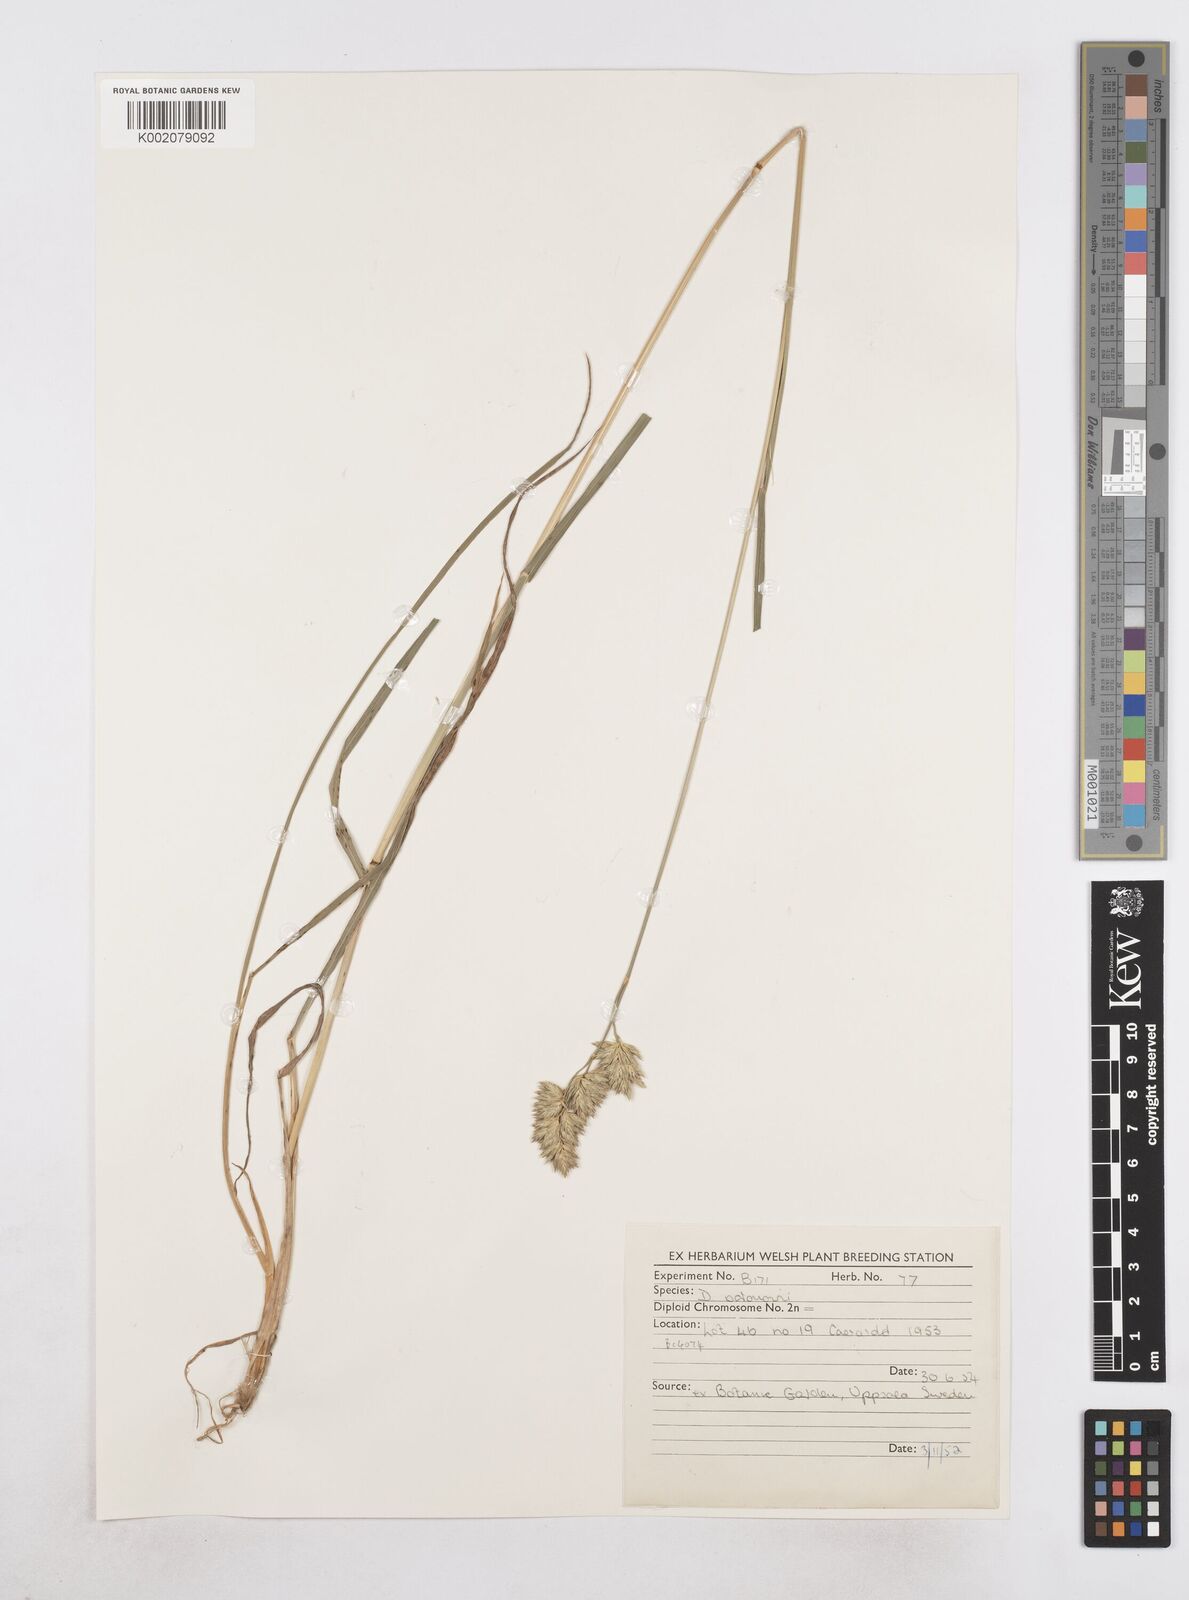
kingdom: Plantae
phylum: Tracheophyta
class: Liliopsida
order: Poales
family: Poaceae
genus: Dactylis
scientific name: Dactylis glomerata
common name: Orchardgrass
